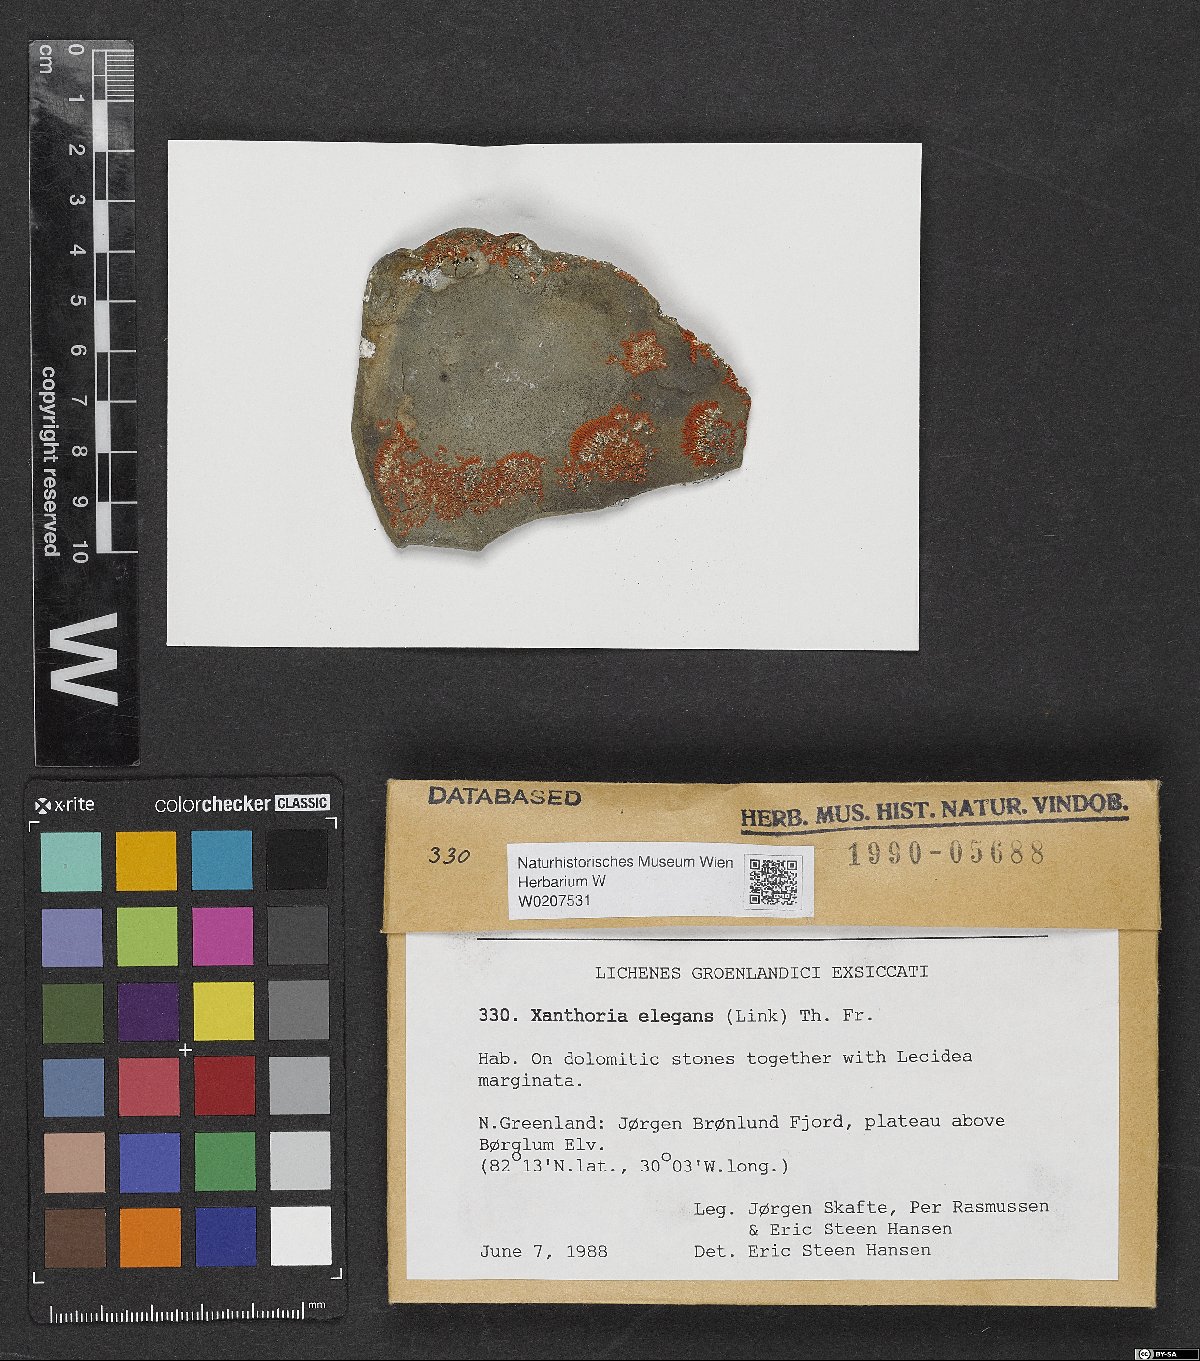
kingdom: Fungi
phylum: Ascomycota
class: Lecanoromycetes
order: Teloschistales
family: Teloschistaceae
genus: Xanthoria
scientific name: Xanthoria elegans
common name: Elegant sunburst lichen
